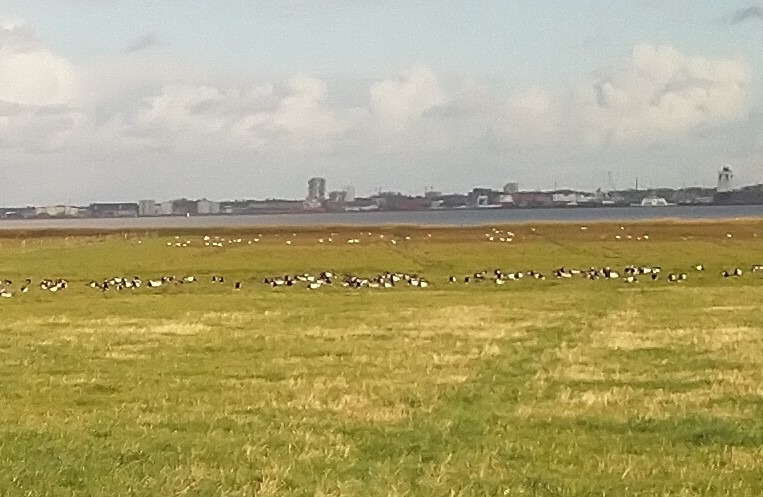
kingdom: Animalia
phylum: Chordata
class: Aves
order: Anseriformes
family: Anatidae
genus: Branta
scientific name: Branta leucopsis
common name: Bramgås
